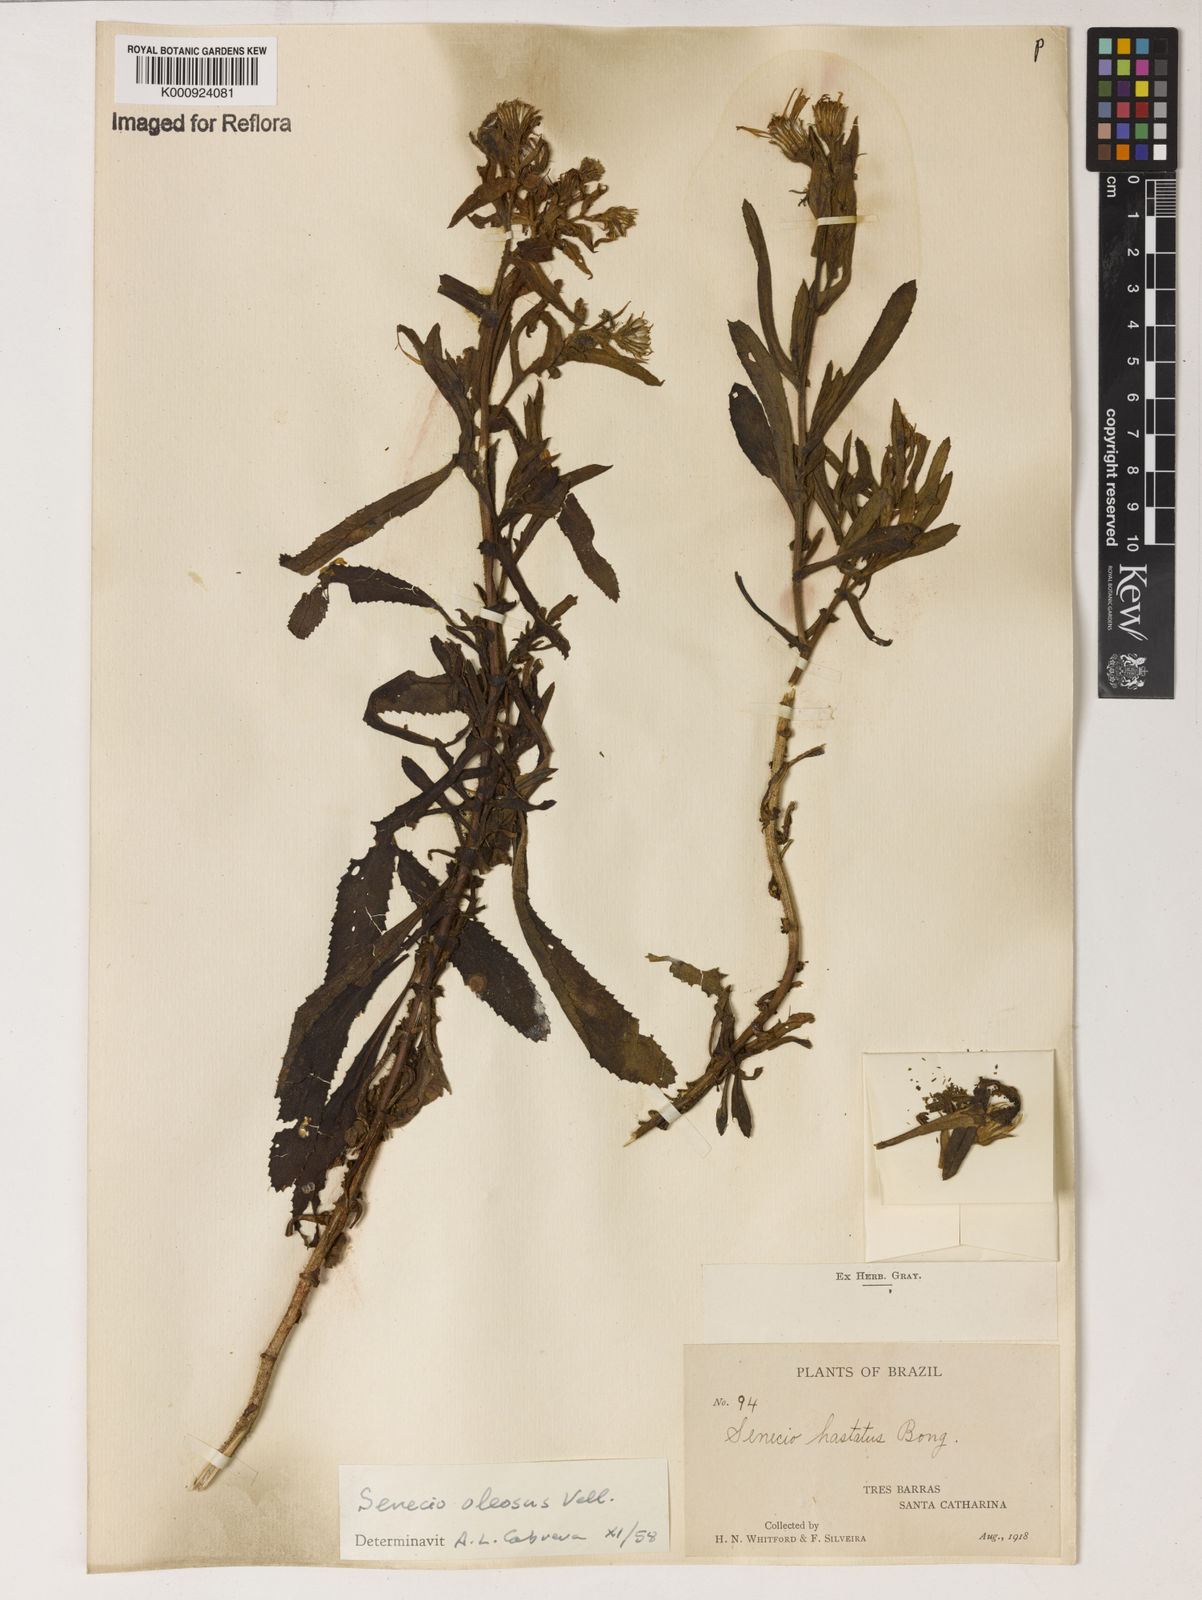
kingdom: Plantae
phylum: Tracheophyta
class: Magnoliopsida
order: Asterales
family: Asteraceae
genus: Senecio
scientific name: Senecio oleosus
